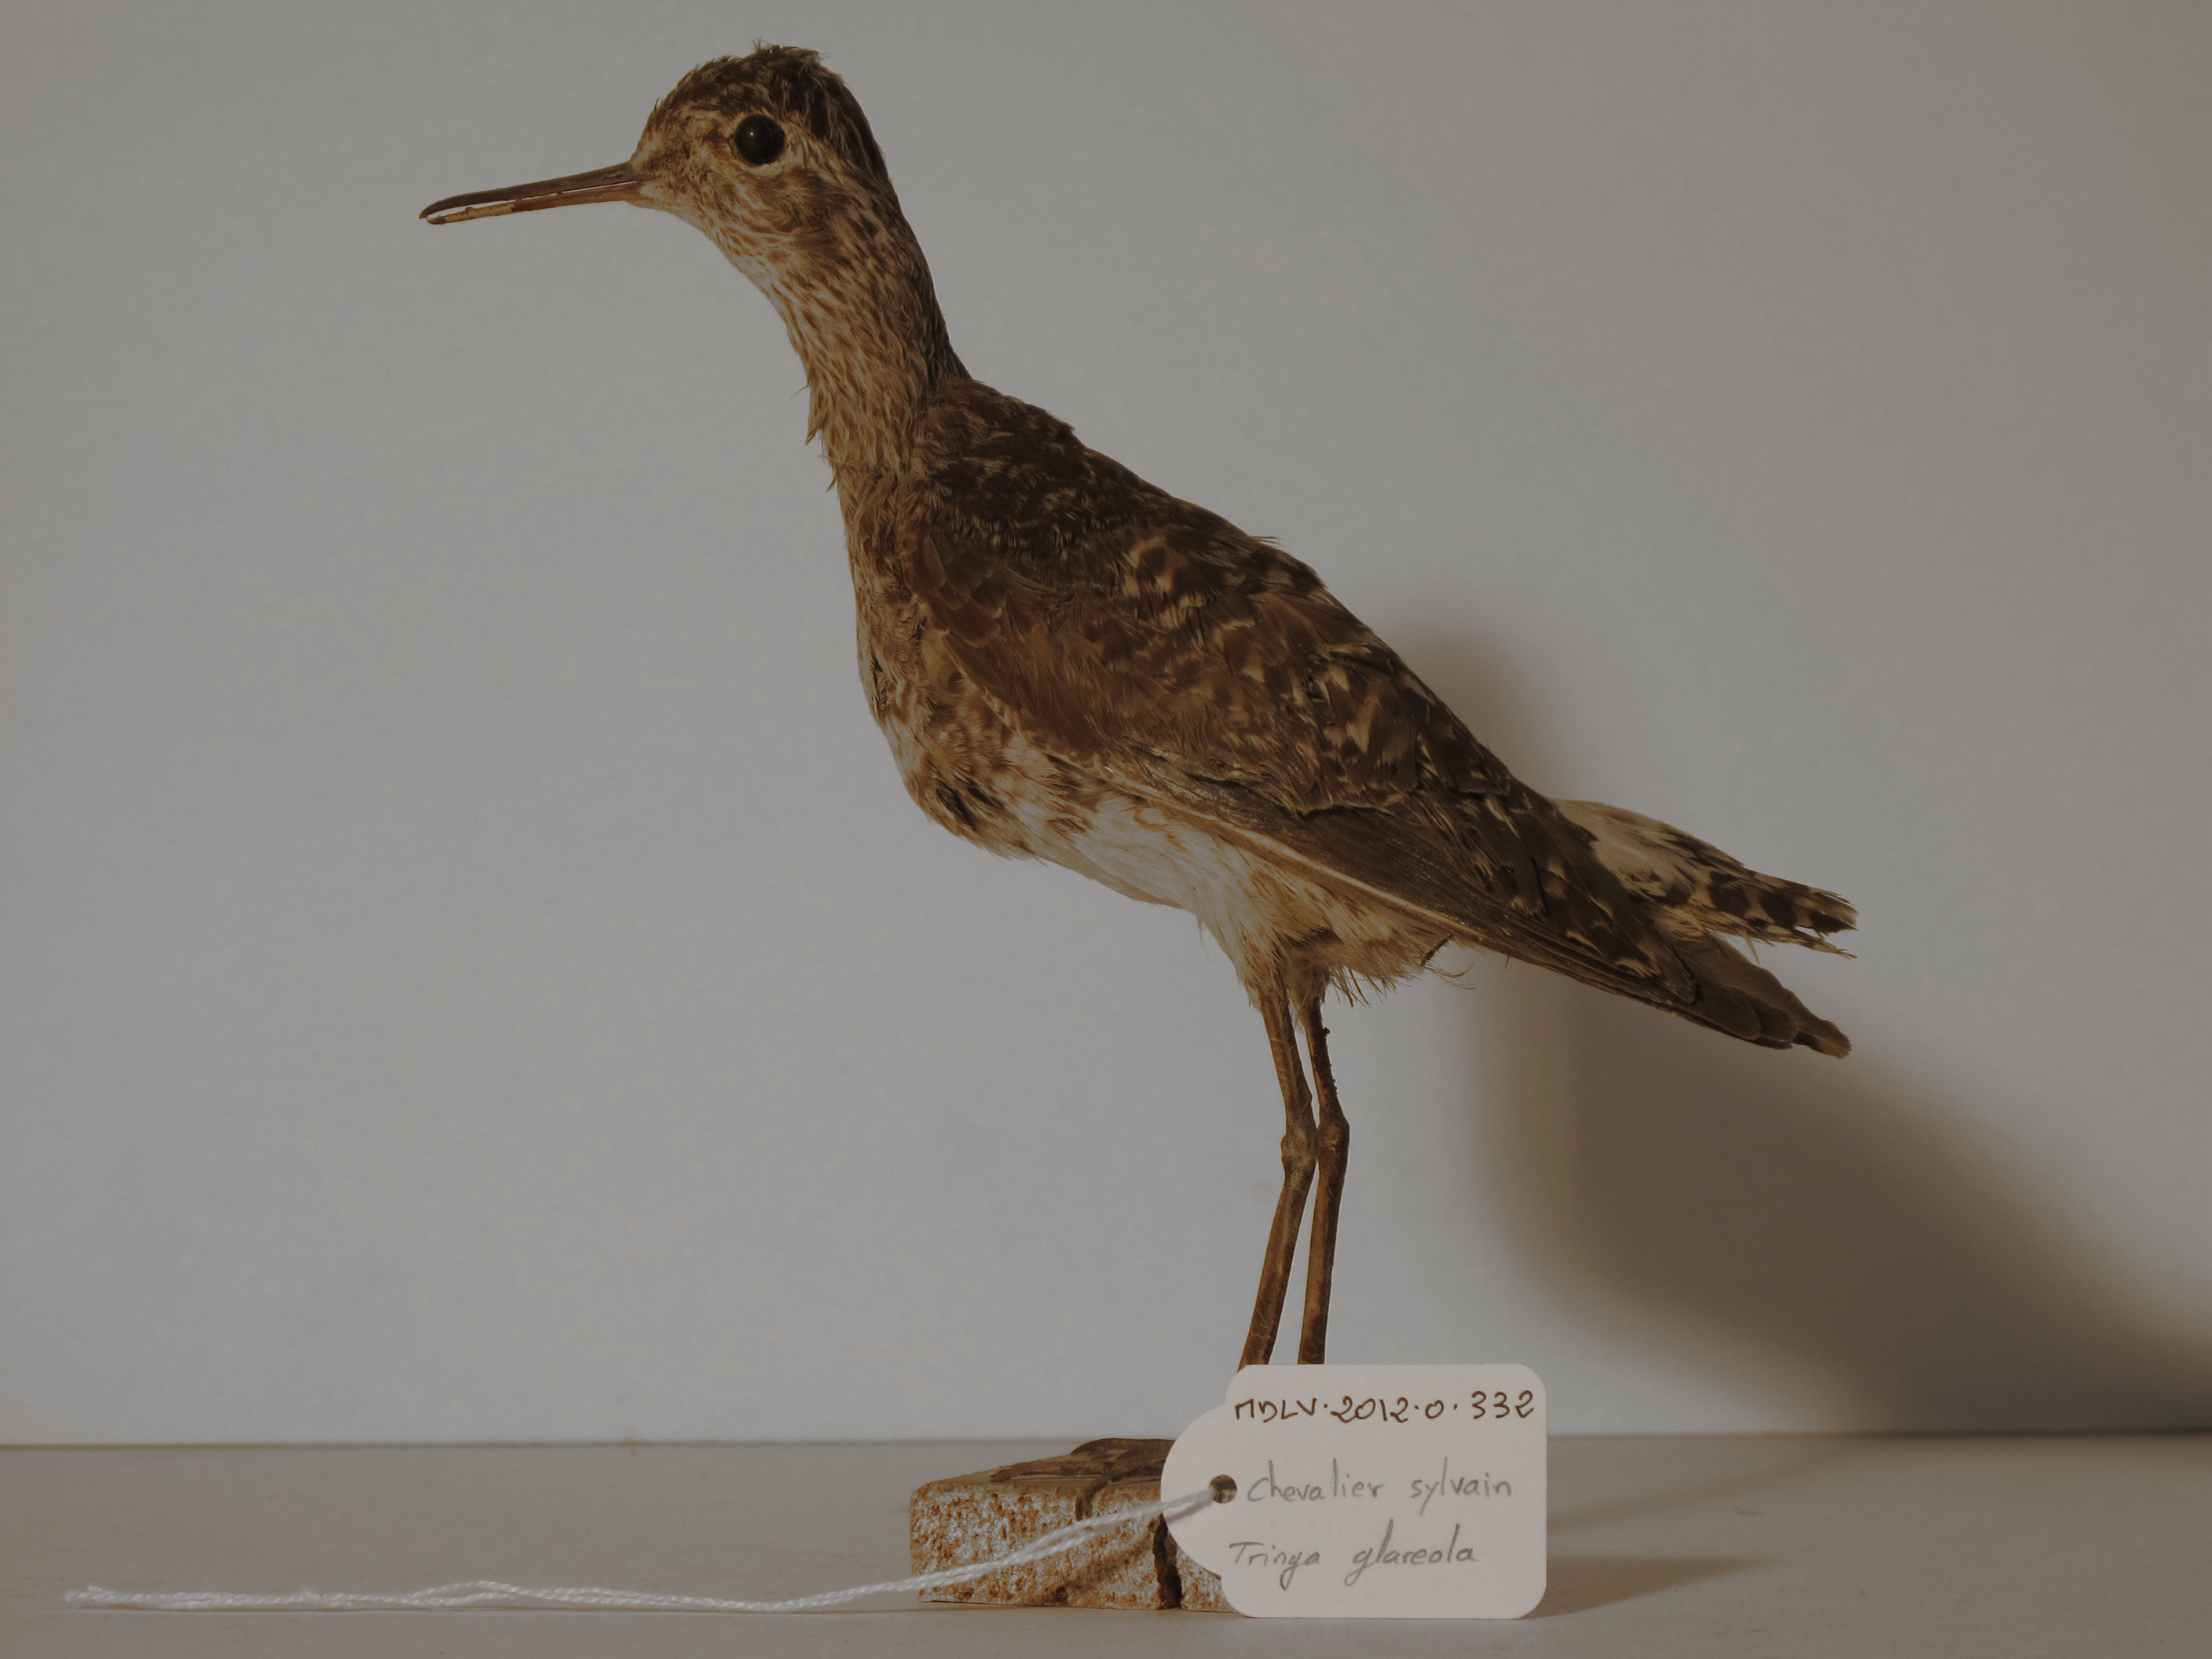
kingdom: Animalia
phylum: Chordata
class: Aves
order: Charadriiformes
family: Scolopacidae
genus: Tringa
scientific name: Tringa glareola
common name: Wood Sandpiper
